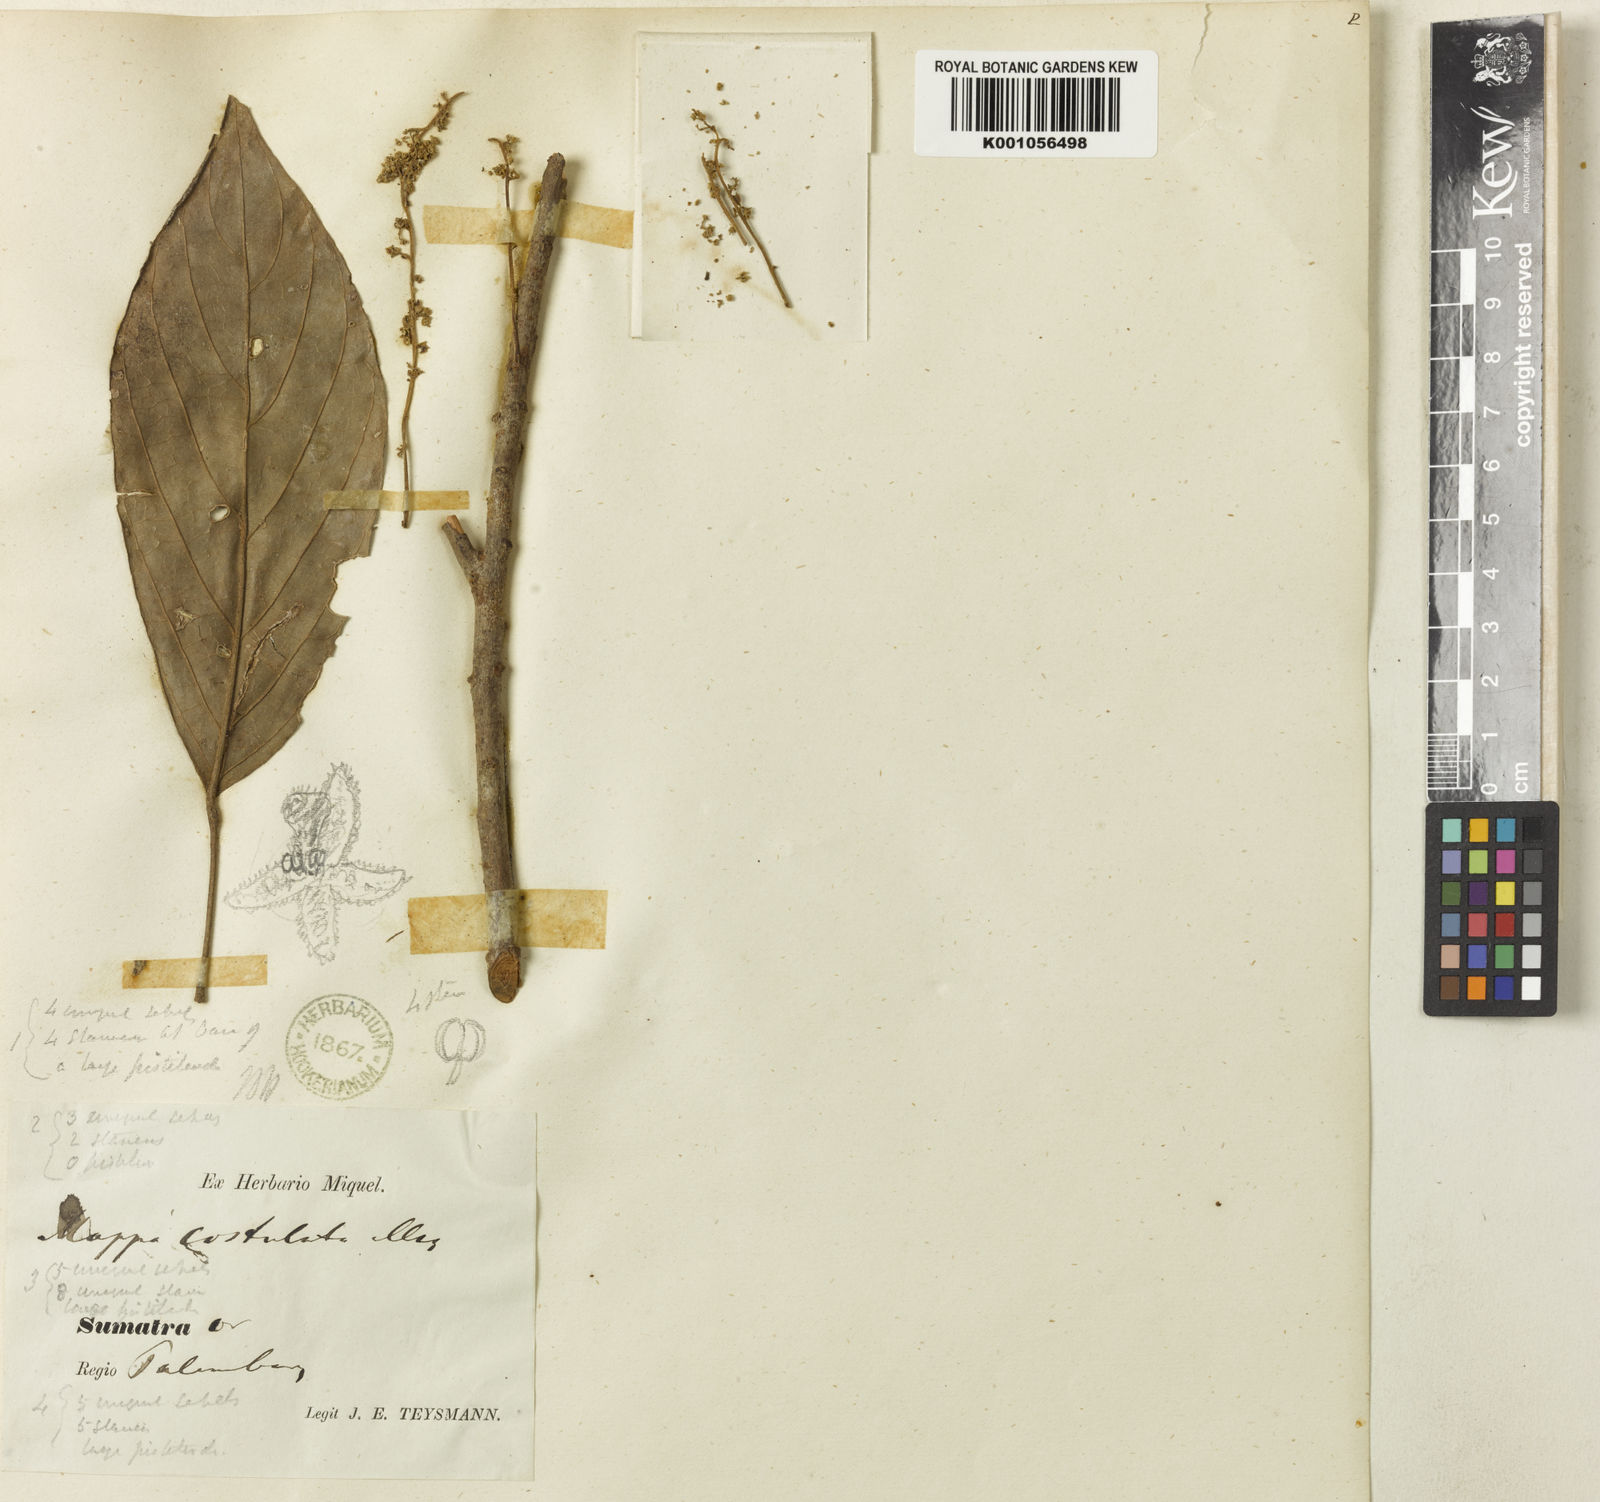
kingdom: Plantae
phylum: Tracheophyta
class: Magnoliopsida
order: Malpighiales
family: Phyllanthaceae
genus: Baccaurea
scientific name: Baccaurea
